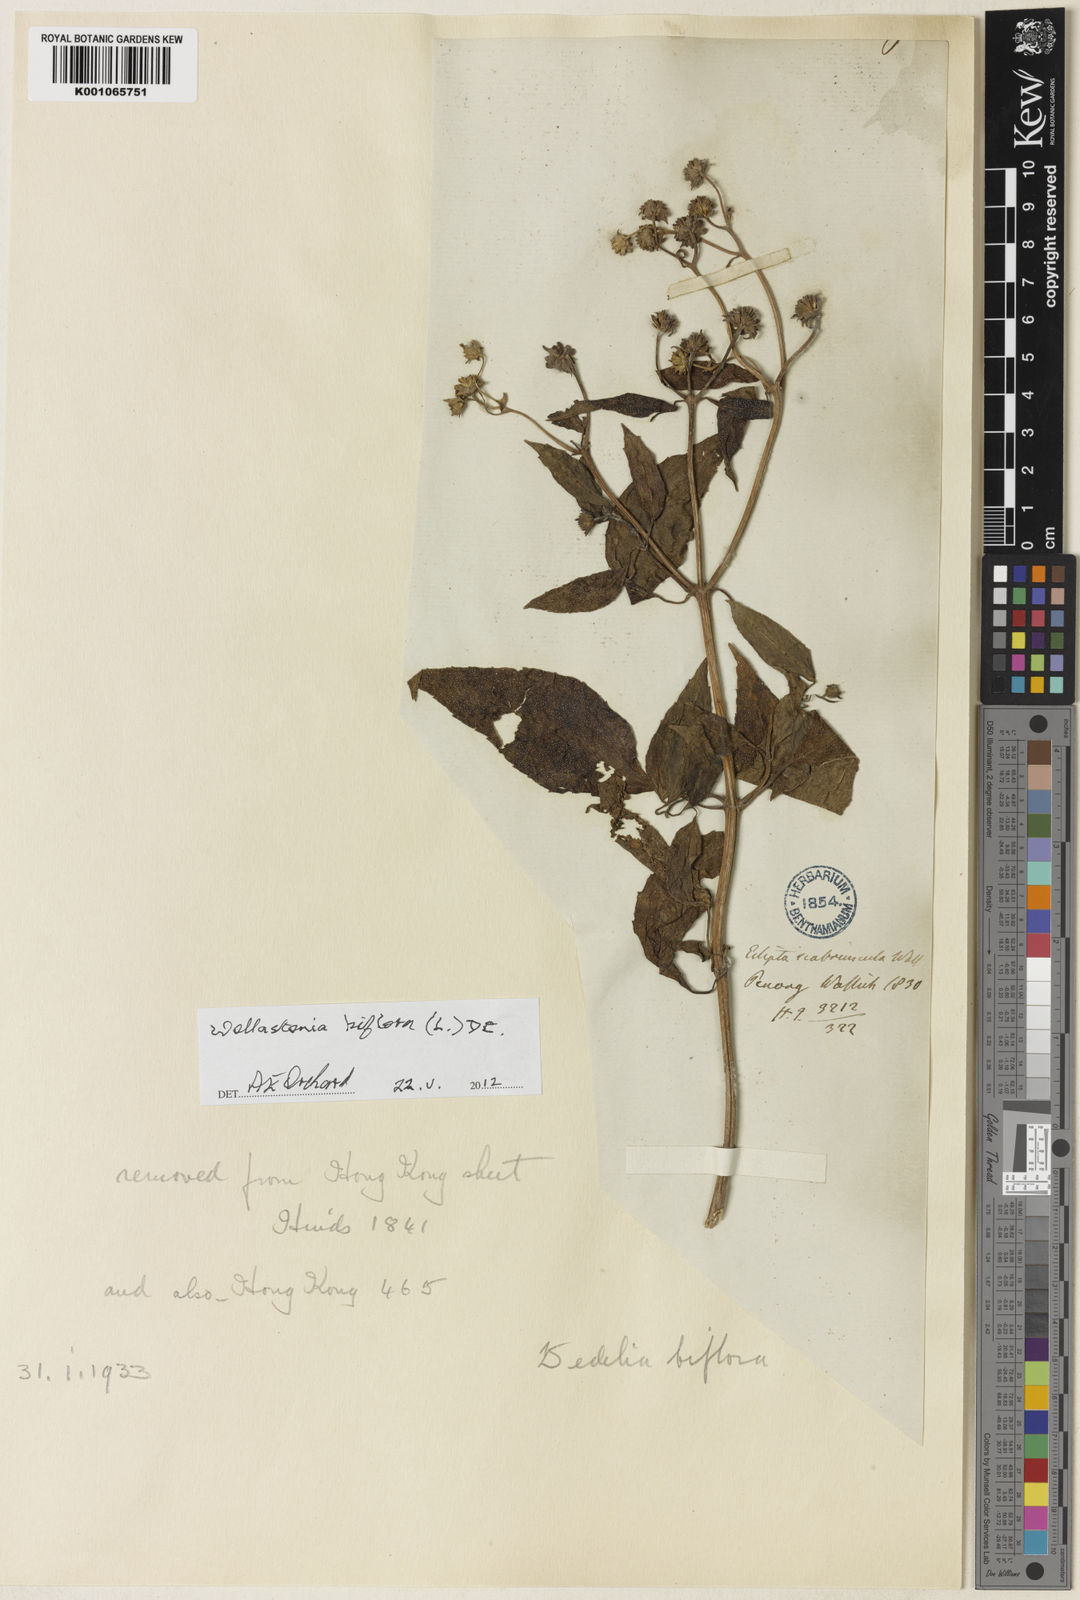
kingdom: Plantae
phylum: Tracheophyta
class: Magnoliopsida
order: Asterales
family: Asteraceae
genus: Wollastonia
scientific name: Wollastonia biflora
